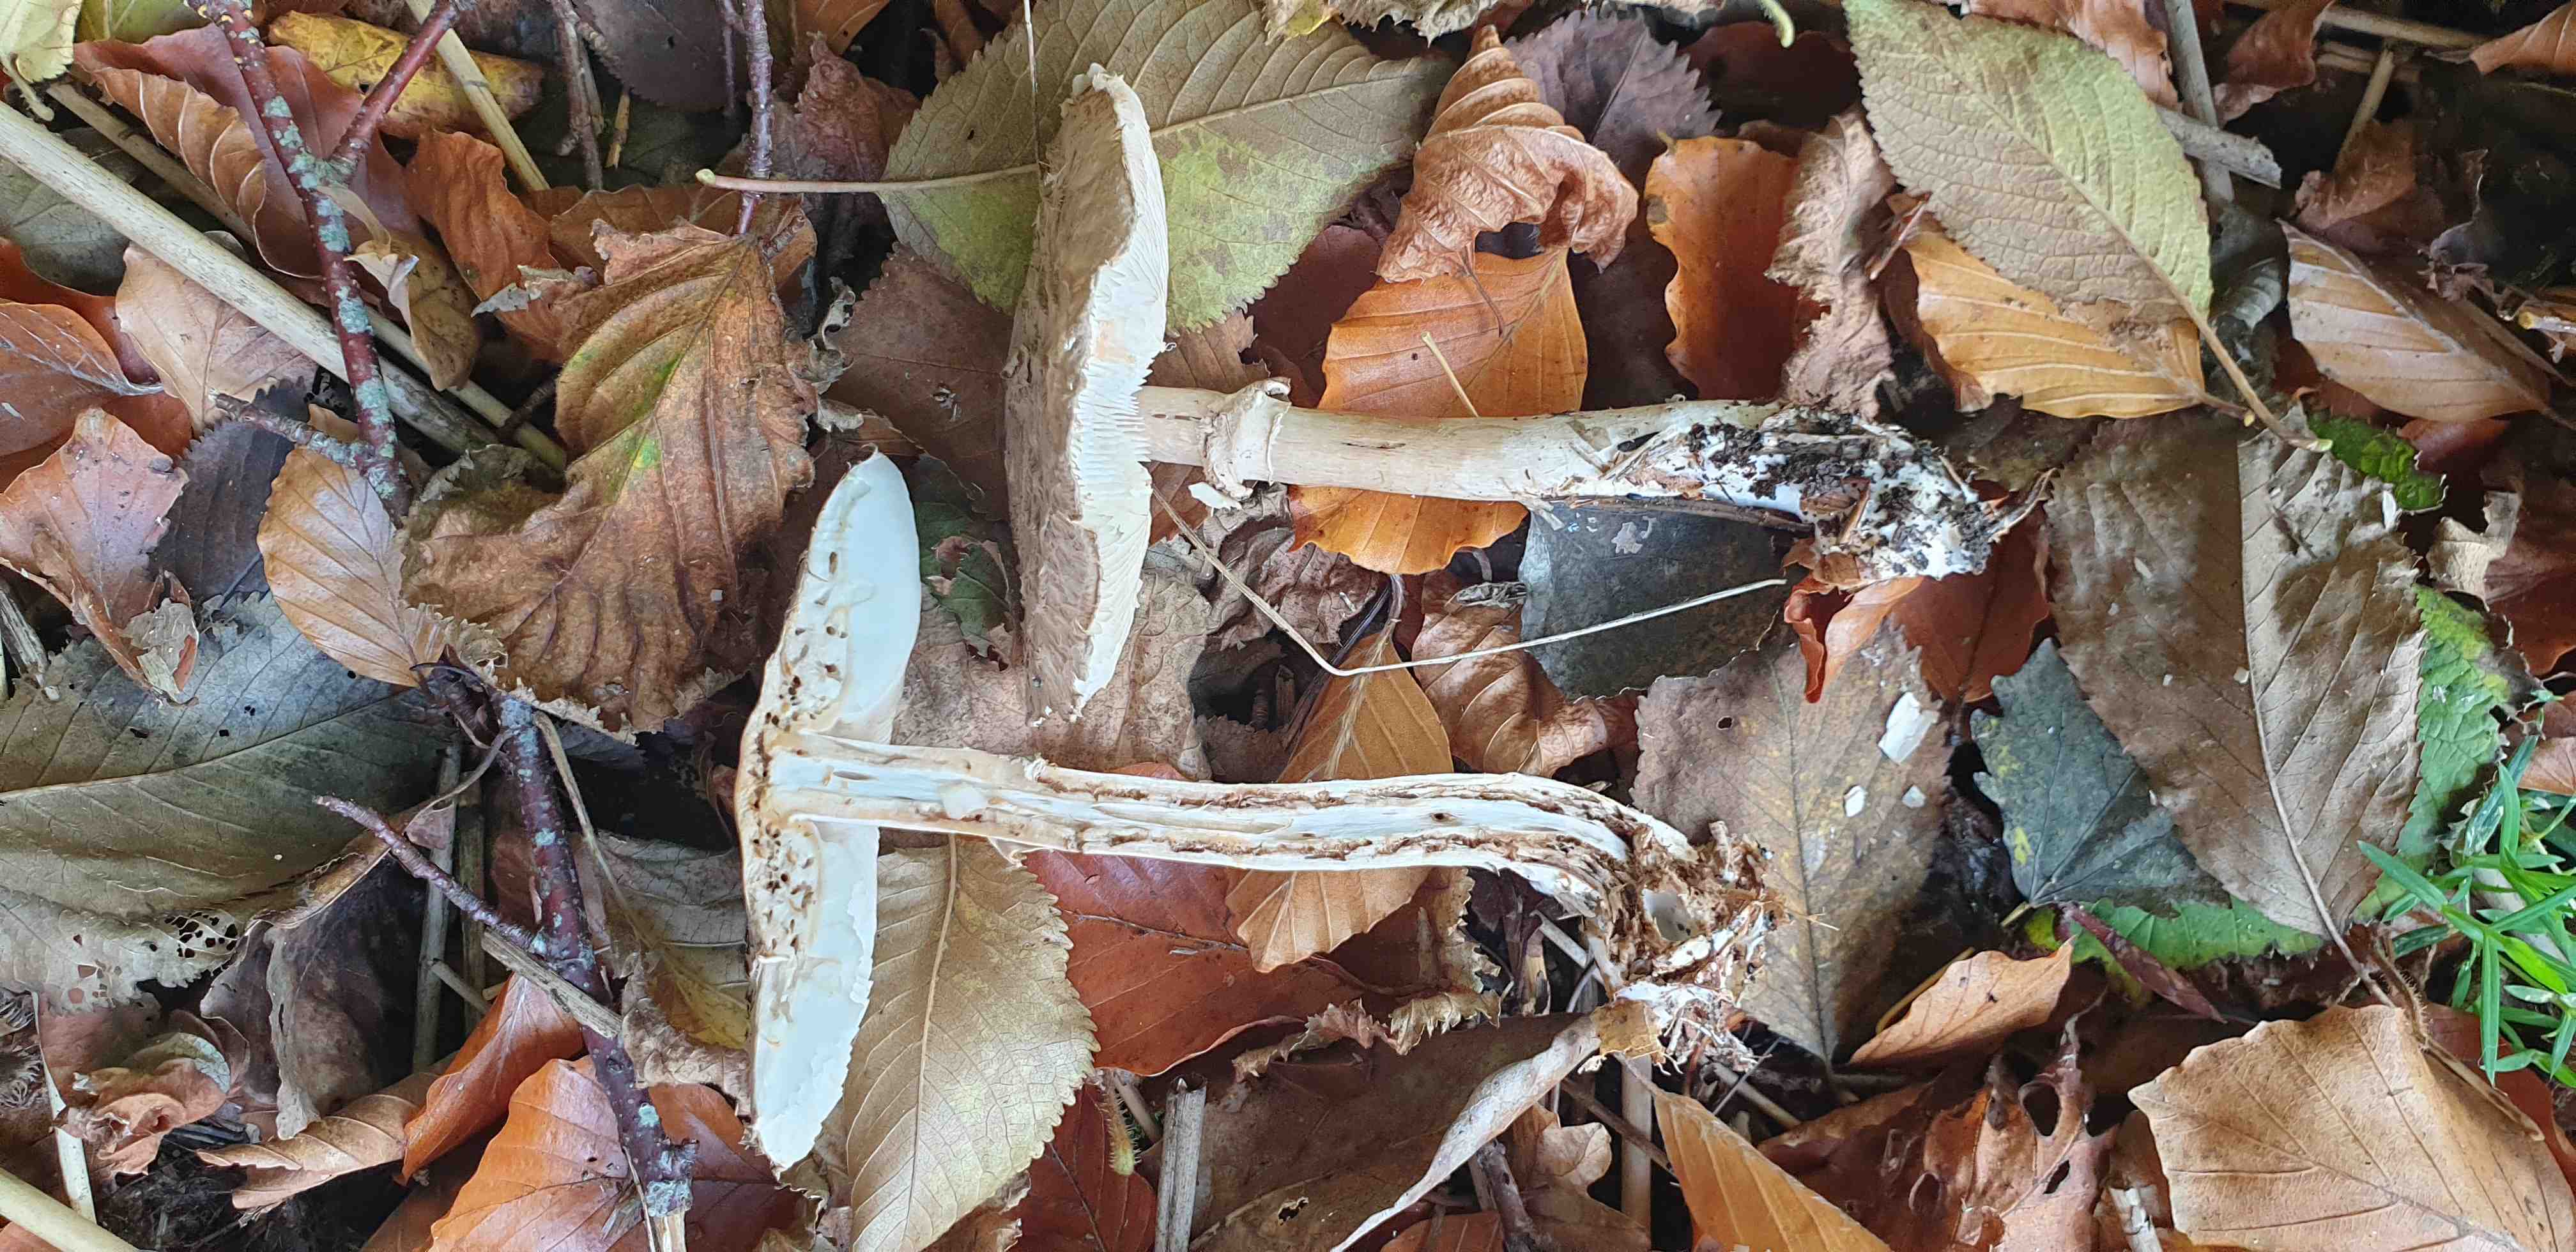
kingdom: Fungi
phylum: Basidiomycota
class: Agaricomycetes
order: Agaricales
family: Agaricaceae
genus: Chlorophyllum
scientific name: Chlorophyllum olivieri
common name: almindelig rabarberhat
